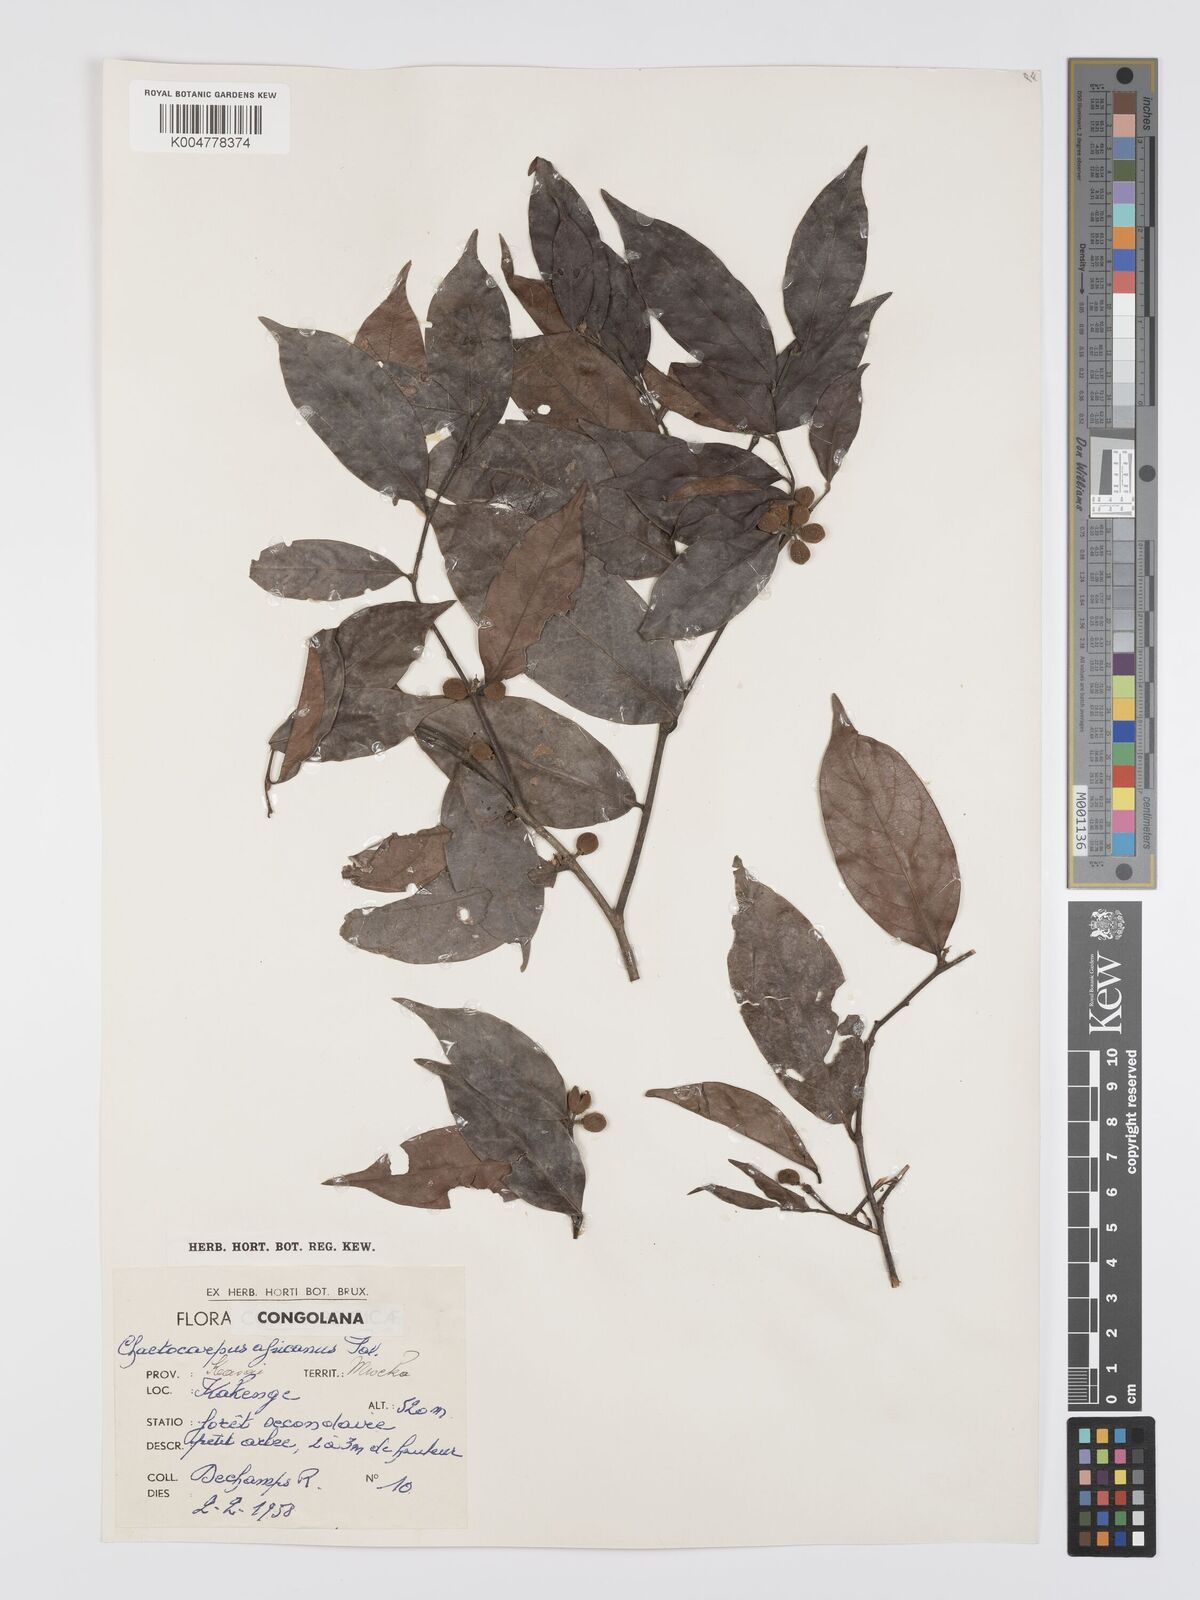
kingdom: Plantae
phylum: Tracheophyta
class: Magnoliopsida
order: Malpighiales
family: Peraceae
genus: Chaetocarpus
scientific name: Chaetocarpus africanus
